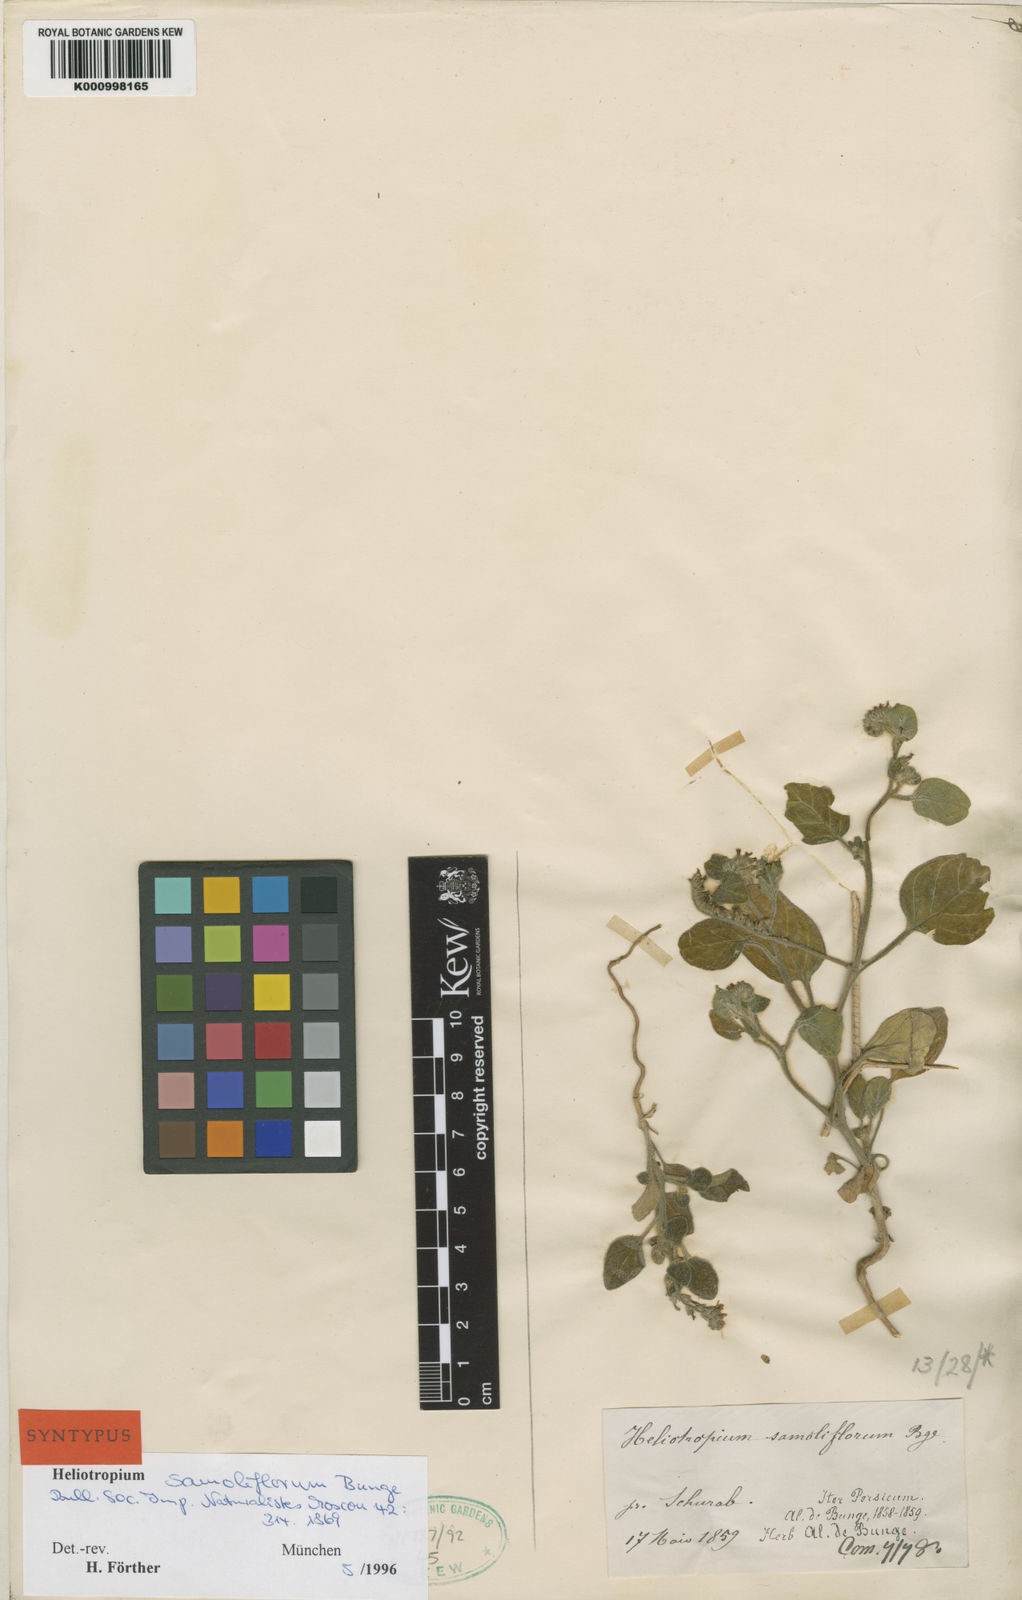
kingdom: Plantae
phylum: Tracheophyta
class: Magnoliopsida
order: Boraginales
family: Heliotropiaceae
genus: Heliotropium
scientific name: Heliotropium samoliflorum
